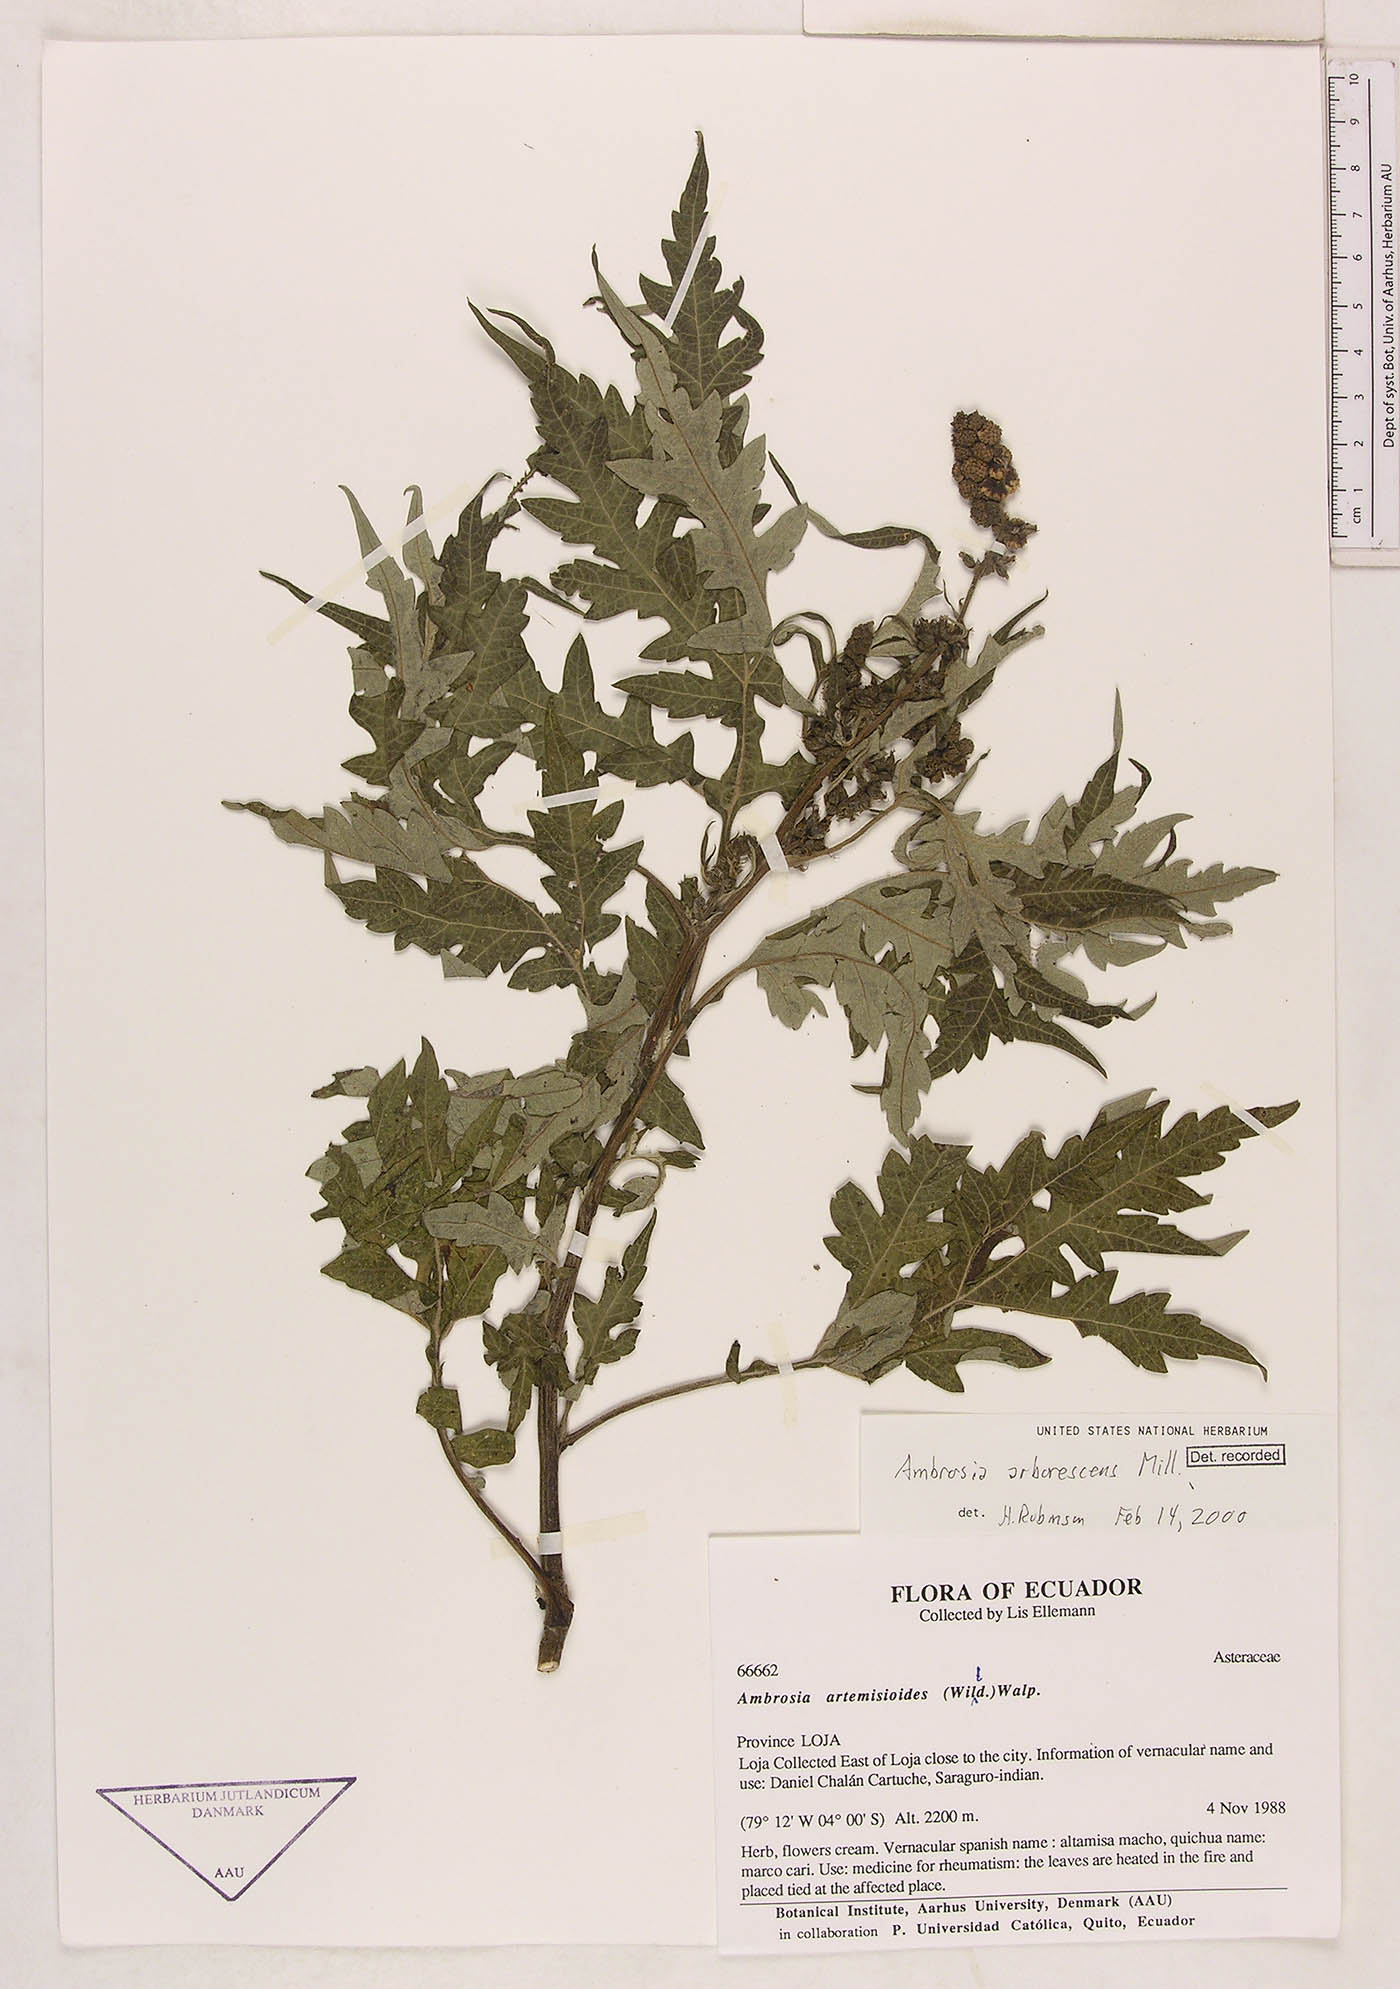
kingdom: Plantae
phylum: Tracheophyta
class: Magnoliopsida
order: Asterales
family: Asteraceae
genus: Ambrosia
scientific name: Ambrosia arborescens
